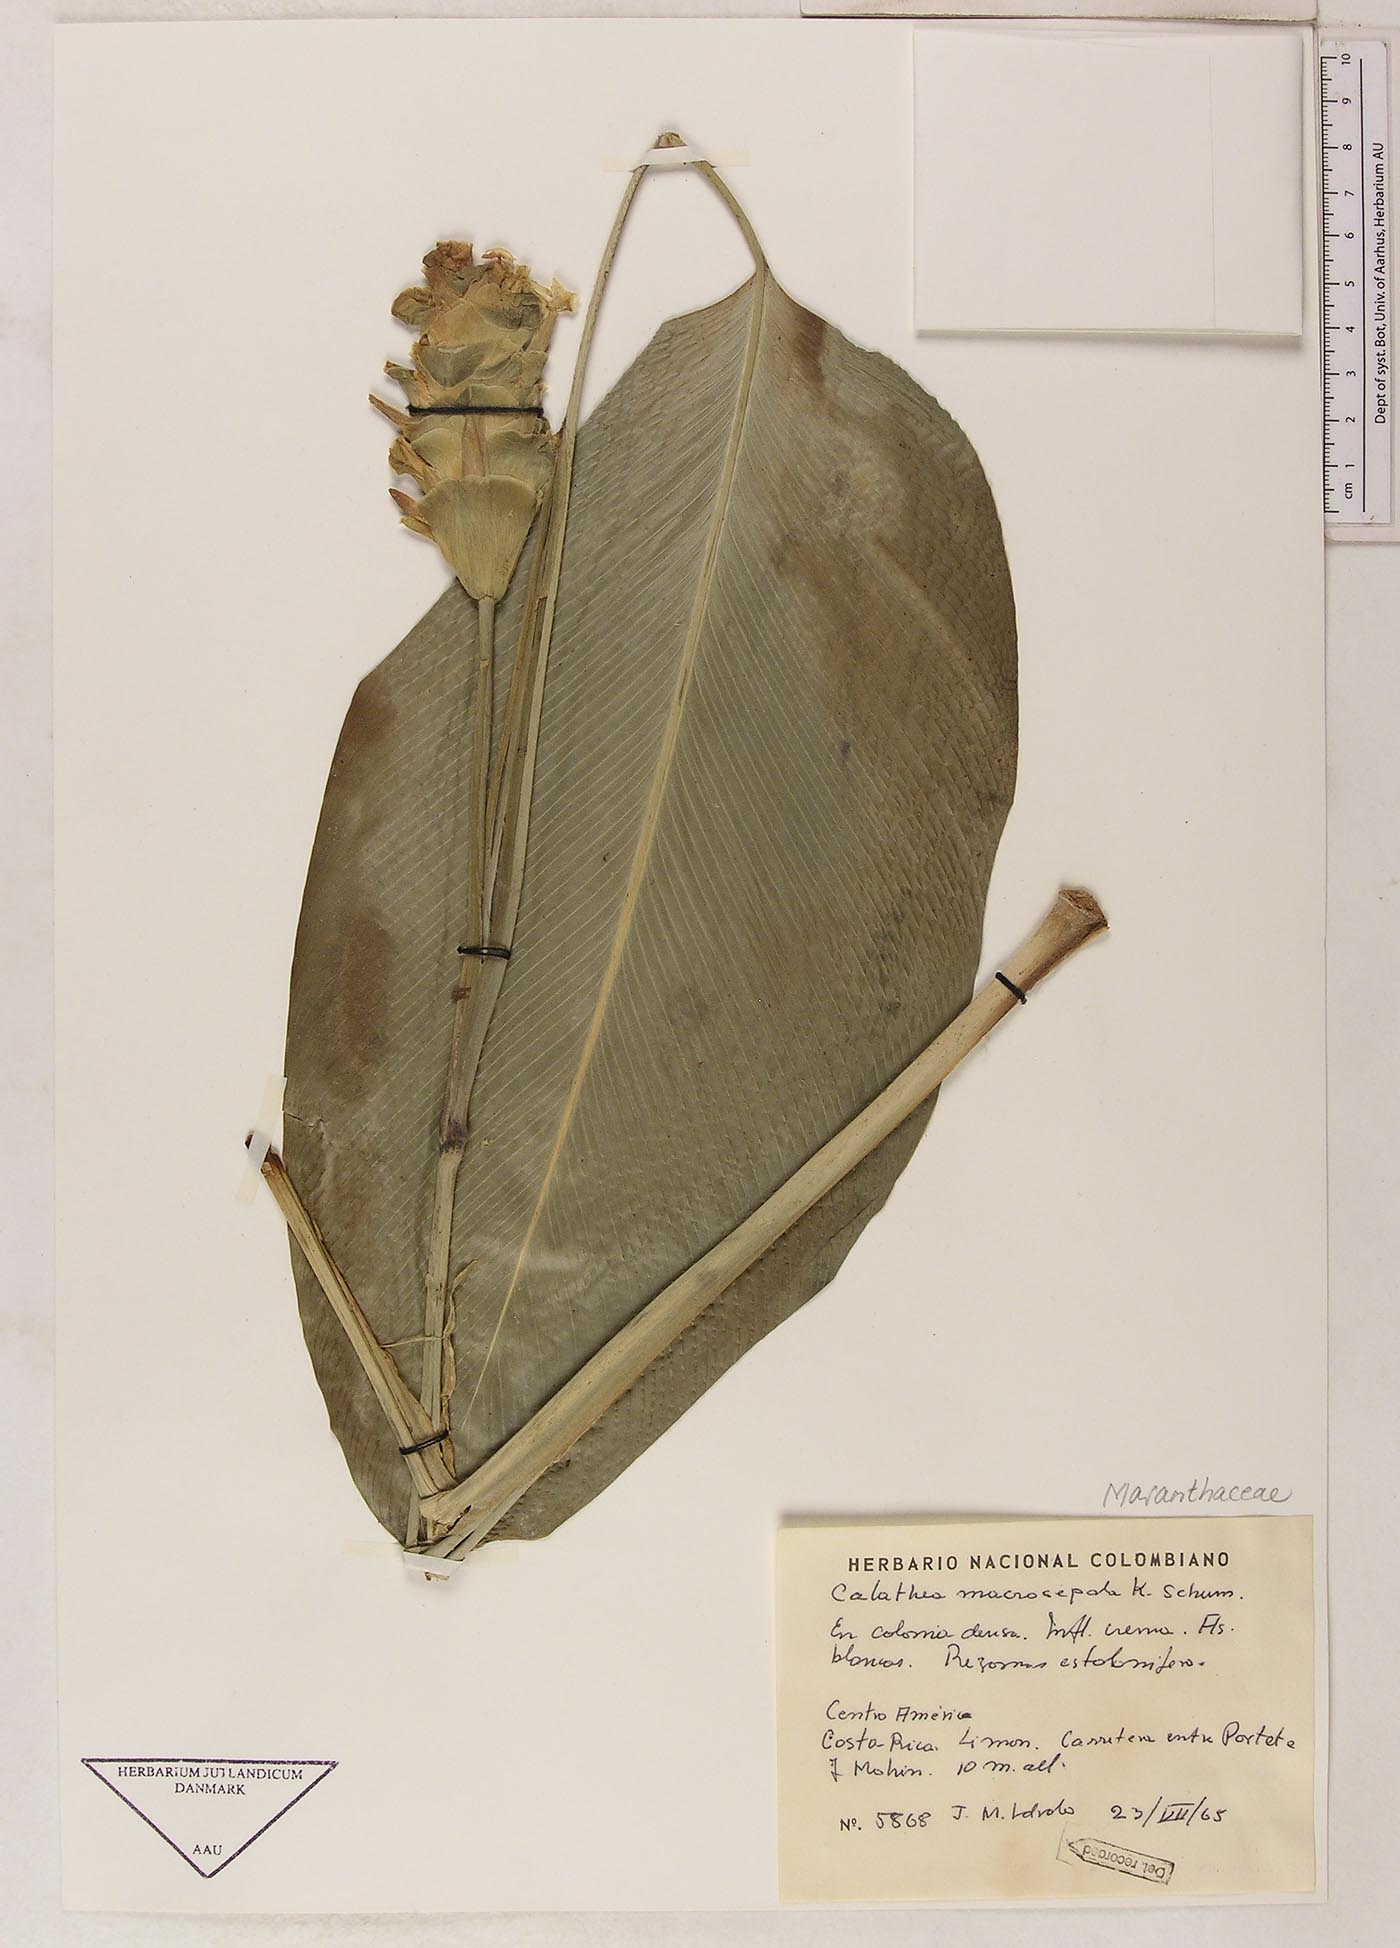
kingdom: Plantae
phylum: Tracheophyta
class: Liliopsida
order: Zingiberales
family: Marantaceae
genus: Goeppertia
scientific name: Goeppertia macrosepala
